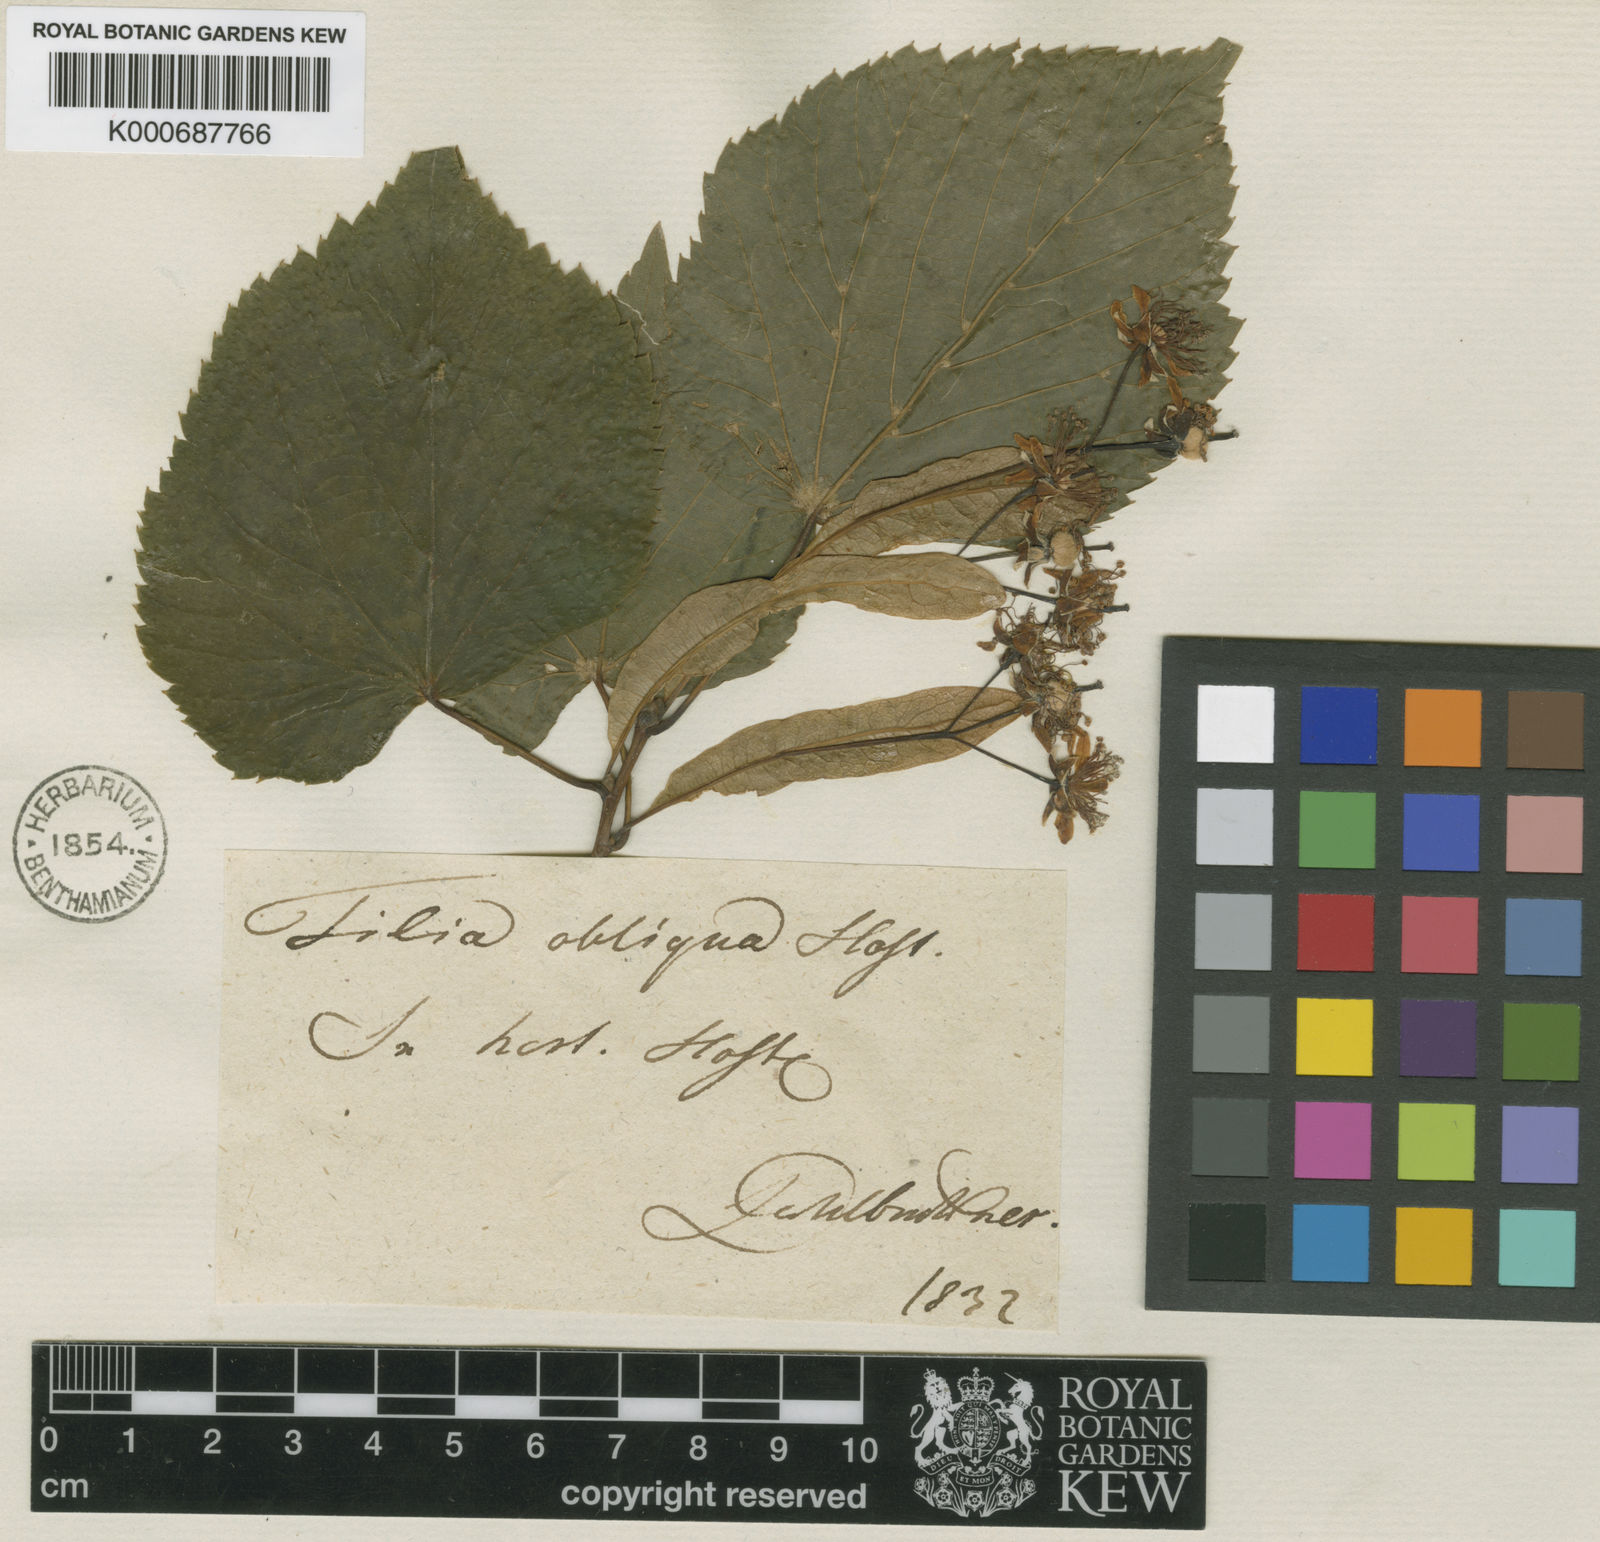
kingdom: Plantae
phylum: Tracheophyta
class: Magnoliopsida
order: Malvales
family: Malvaceae
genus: Tilia
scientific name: Tilia platyphyllos
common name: Large-leaved lime
